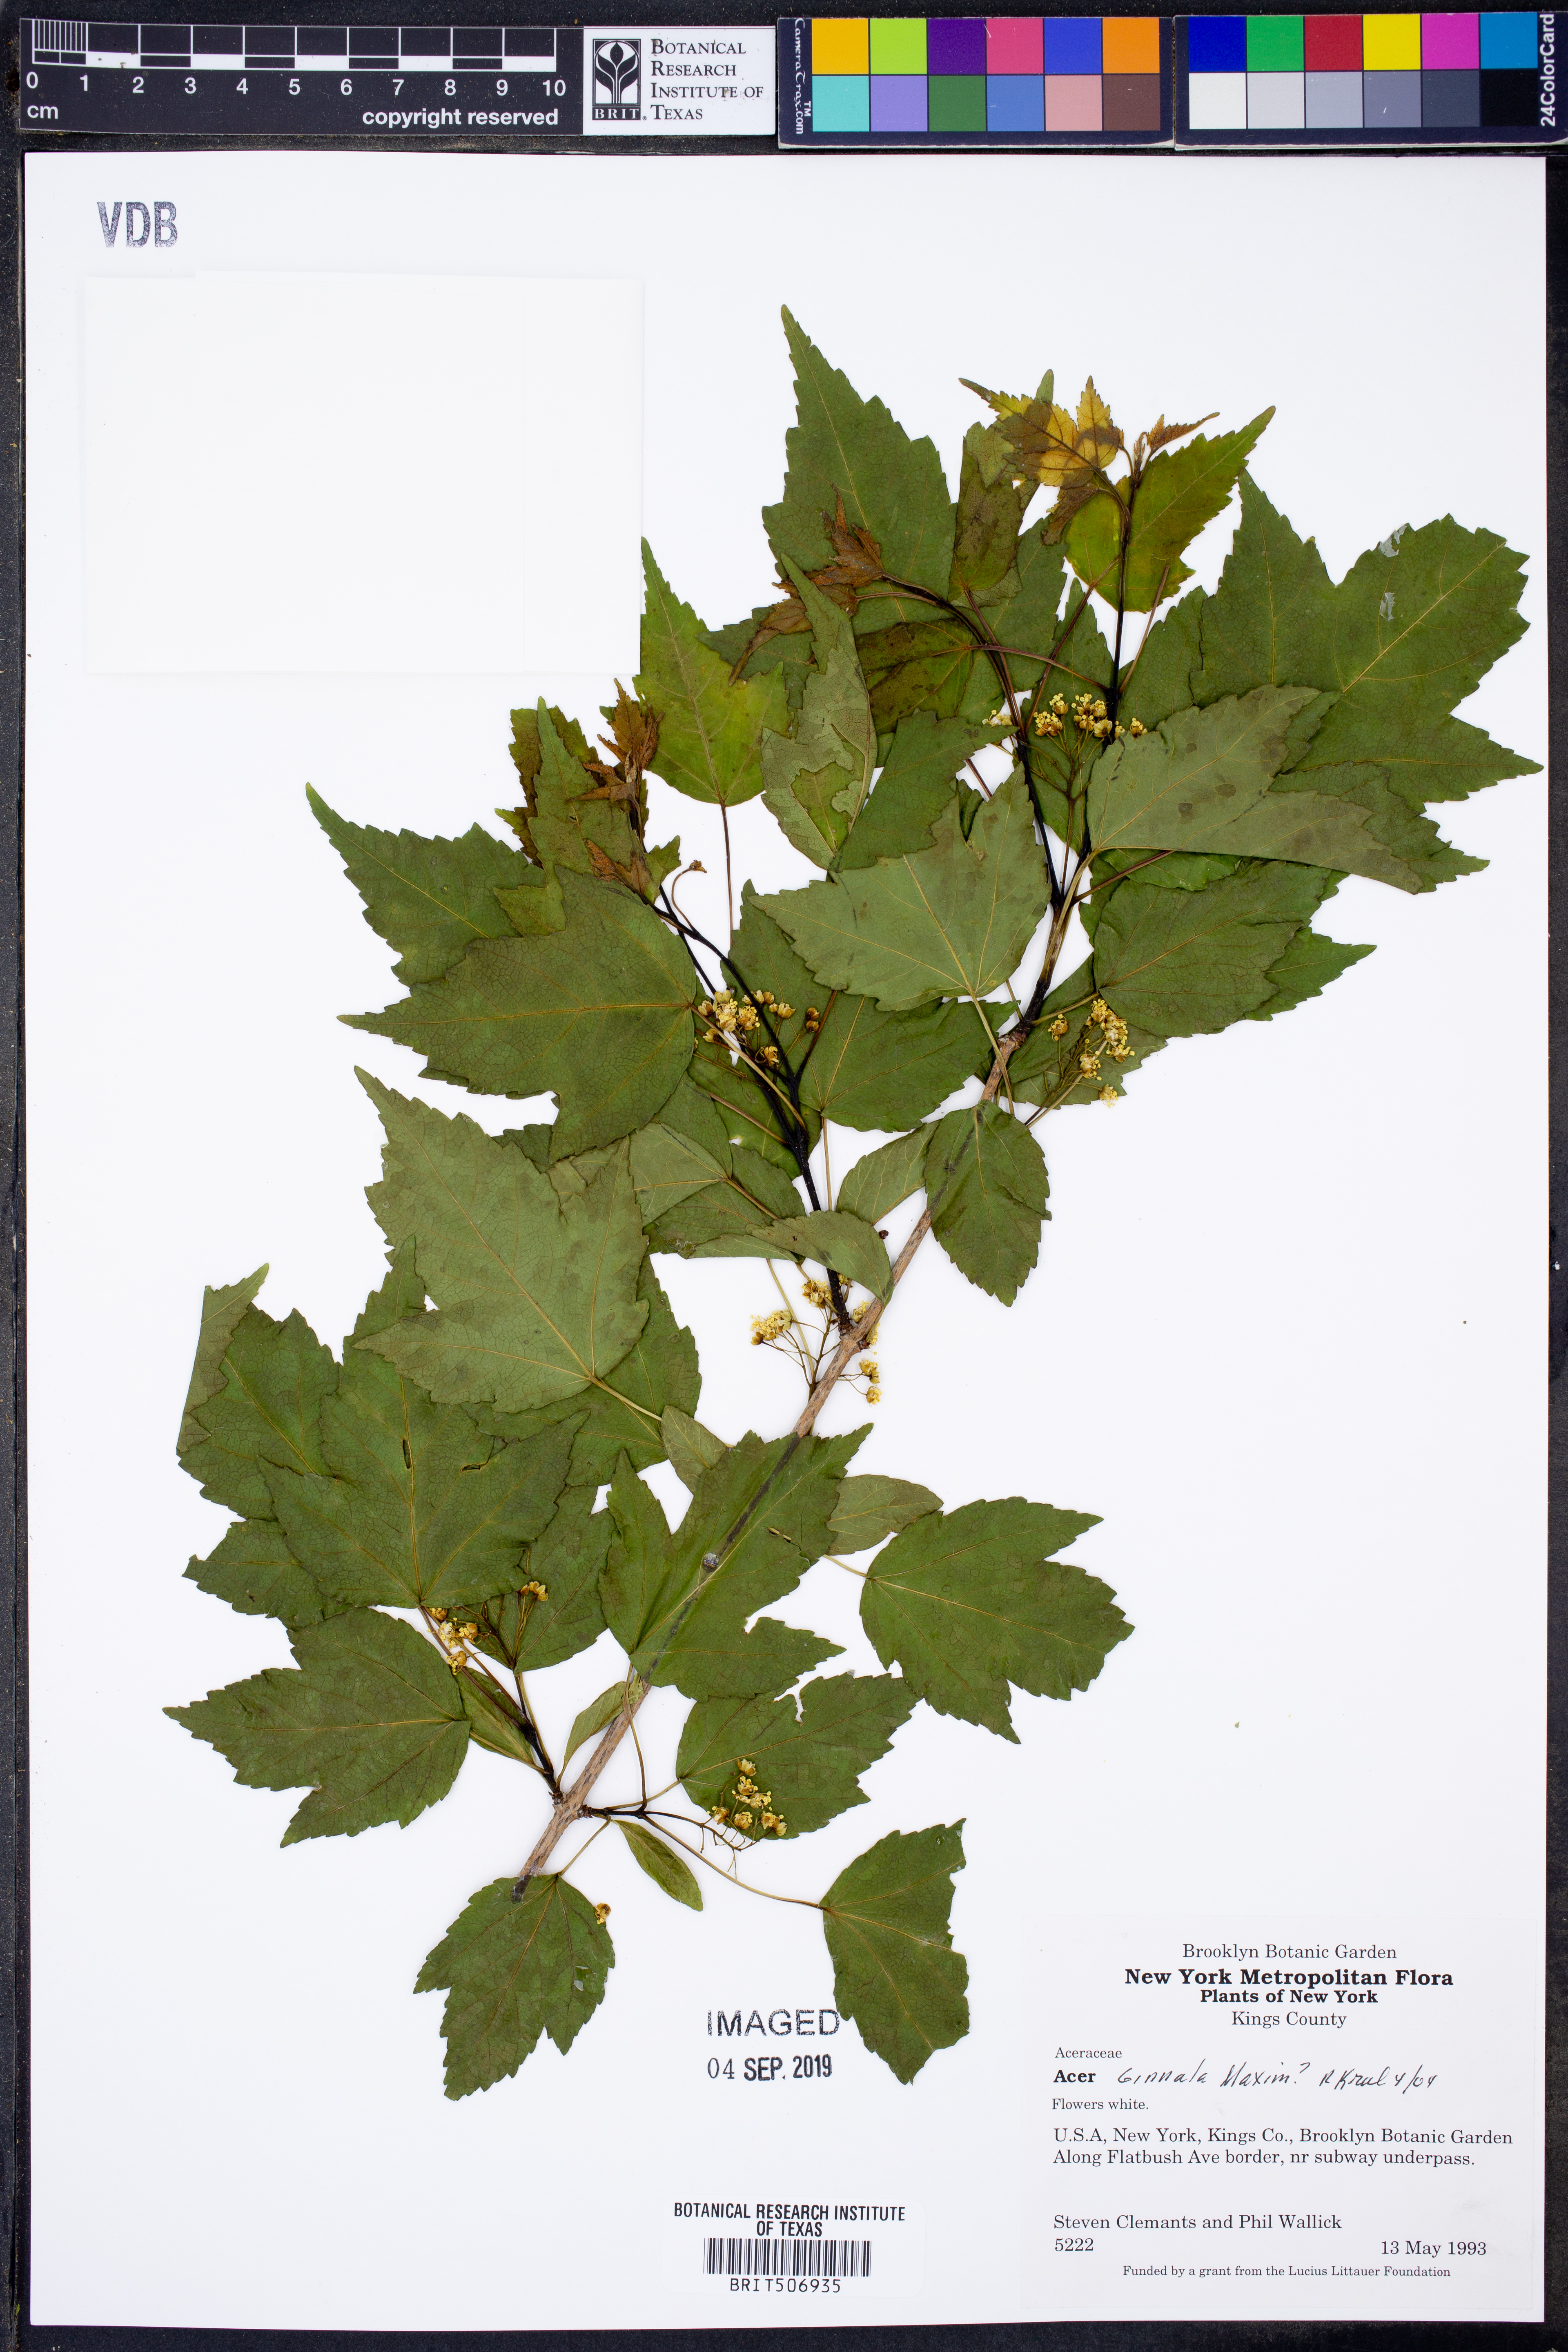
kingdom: Plantae
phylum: Tracheophyta
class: Magnoliopsida
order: Sapindales
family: Sapindaceae
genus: Acer
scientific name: Acer tataricum
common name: Tartar maple
